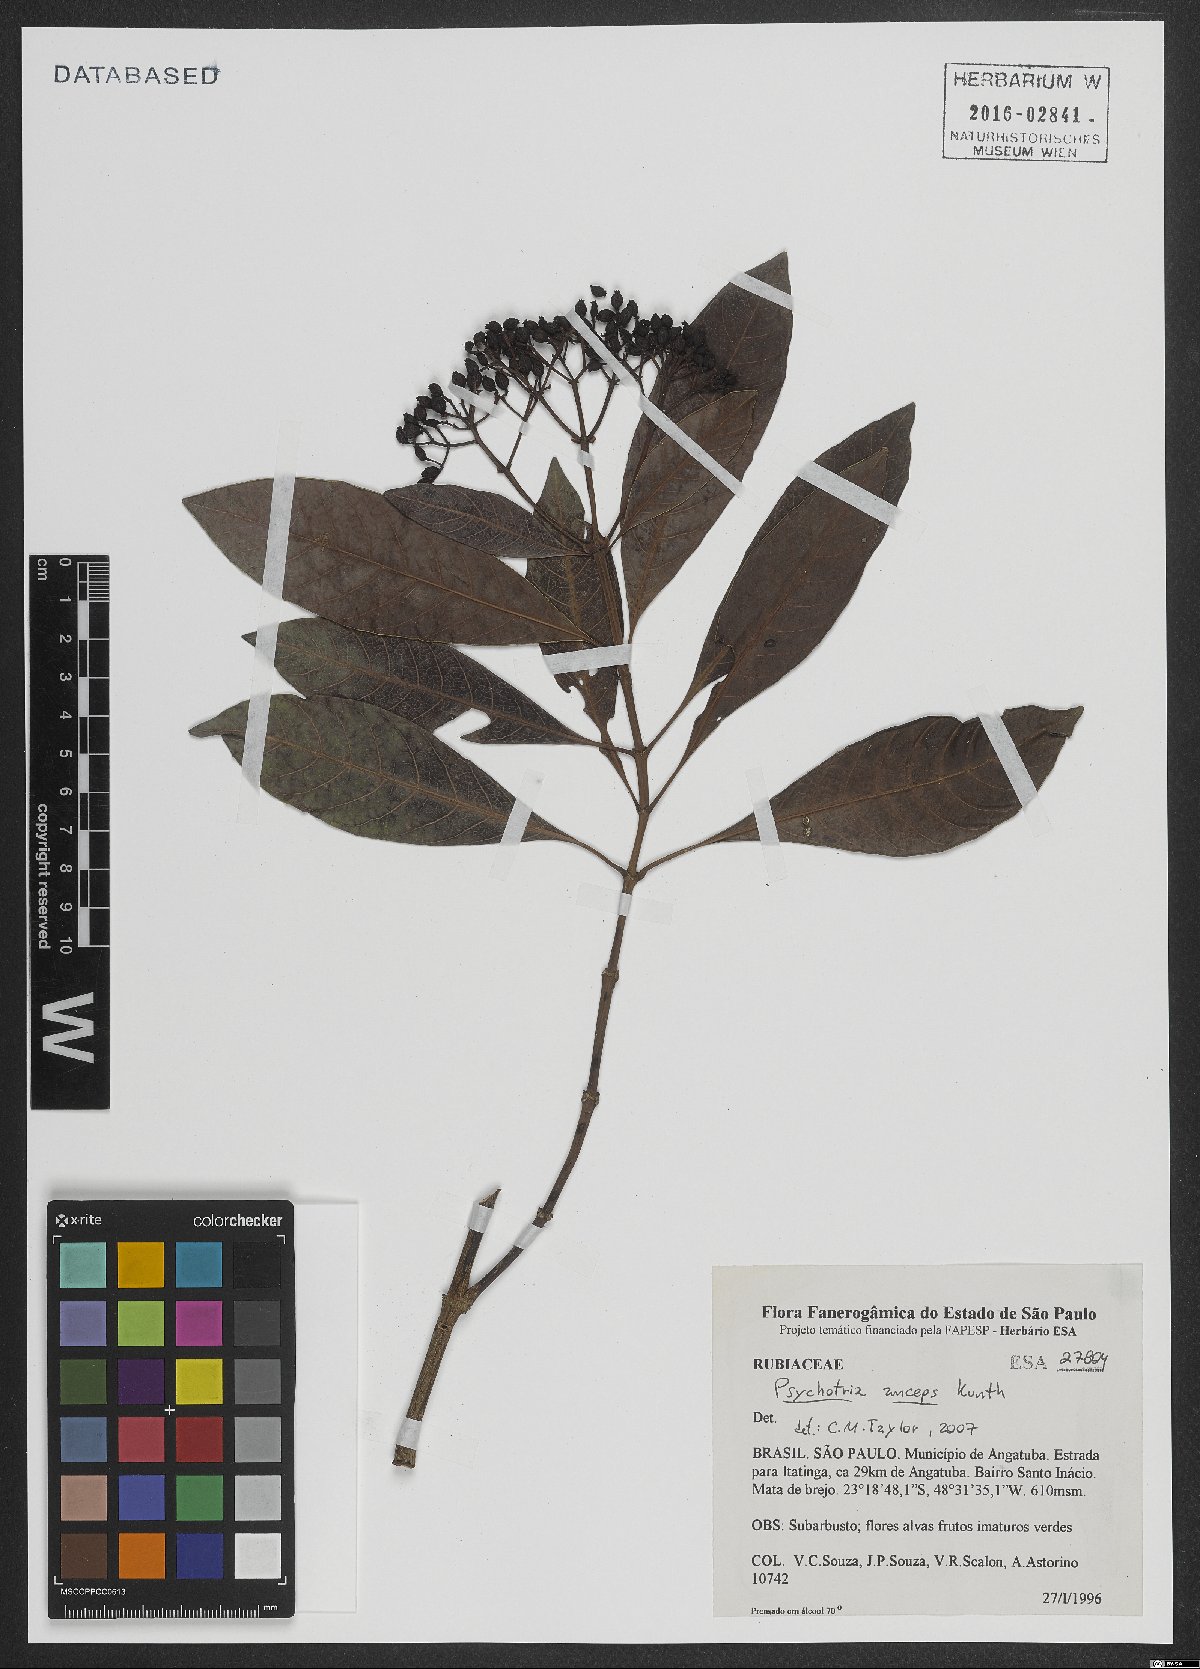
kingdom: Plantae
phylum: Tracheophyta
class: Magnoliopsida
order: Gentianales
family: Rubiaceae
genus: Psychotria
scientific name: Psychotria anceps
